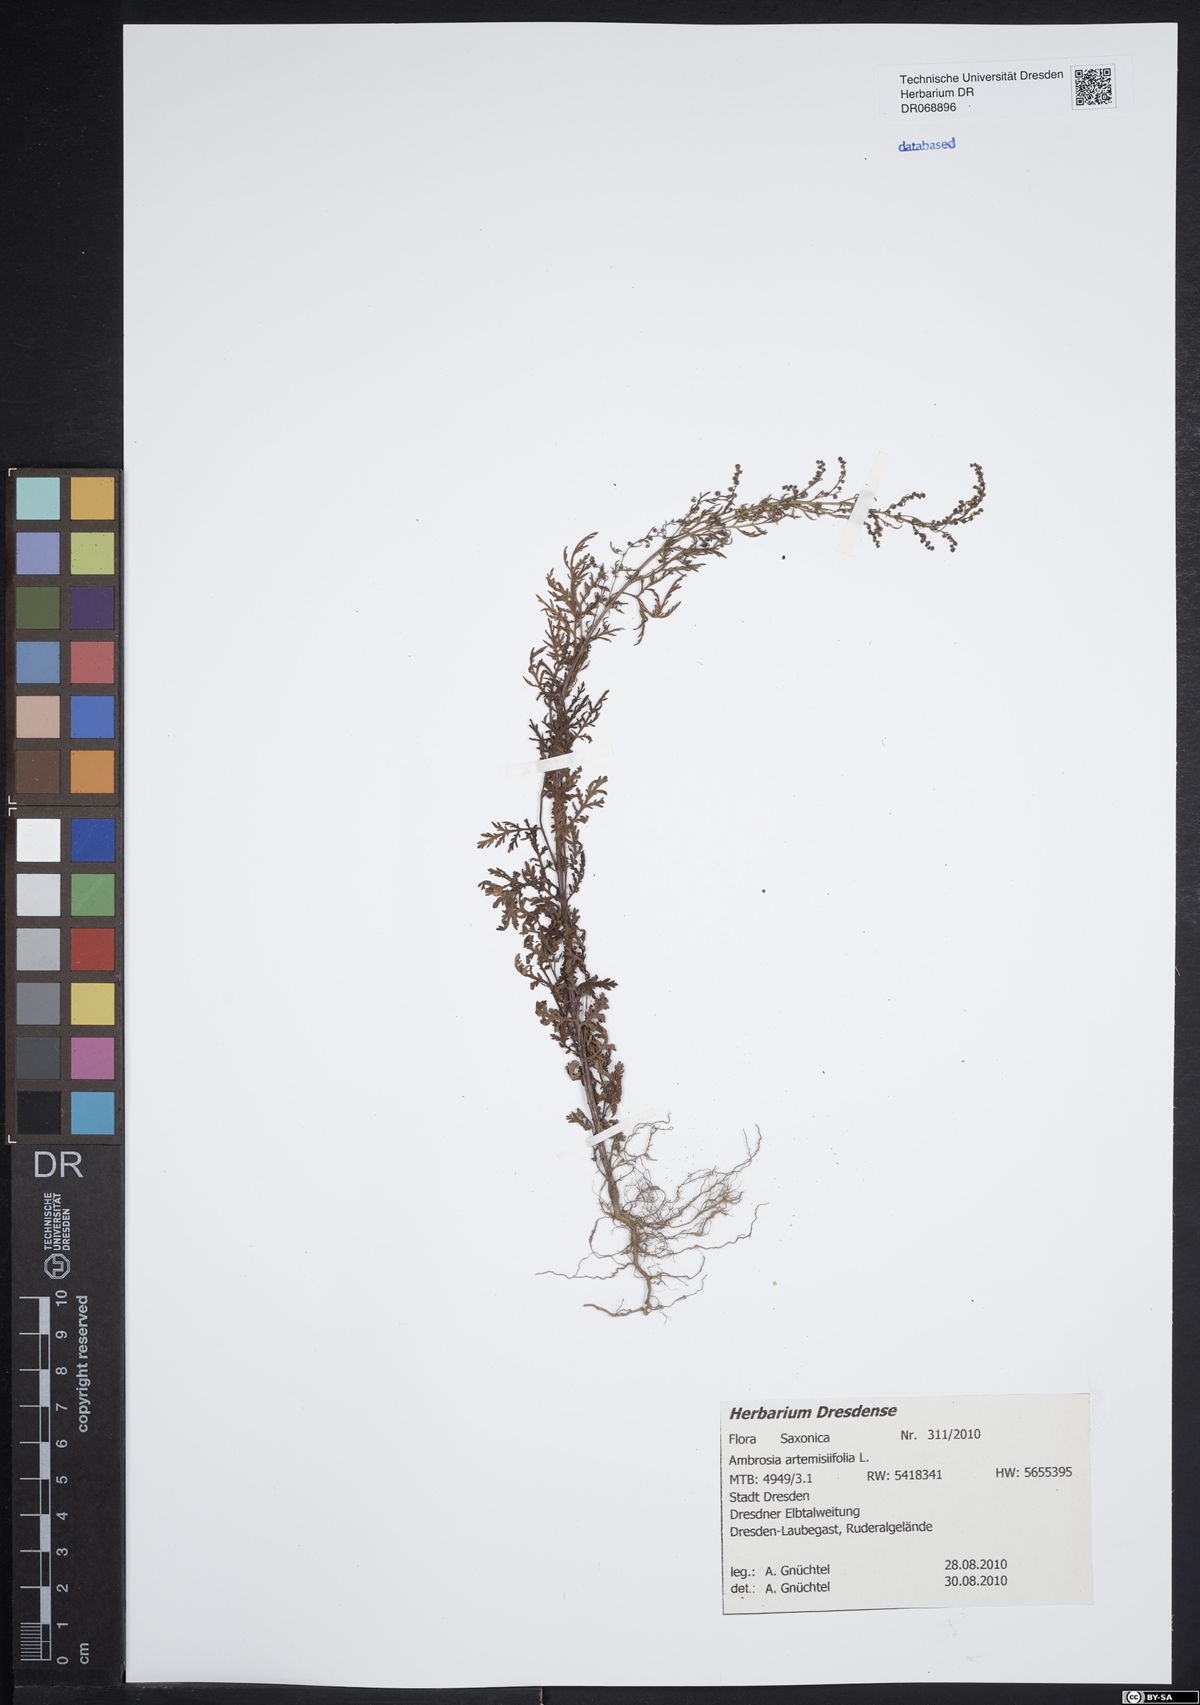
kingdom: Plantae
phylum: Tracheophyta
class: Magnoliopsida
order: Asterales
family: Asteraceae
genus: Ambrosia
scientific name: Ambrosia artemisiifolia
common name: Annual ragweed
